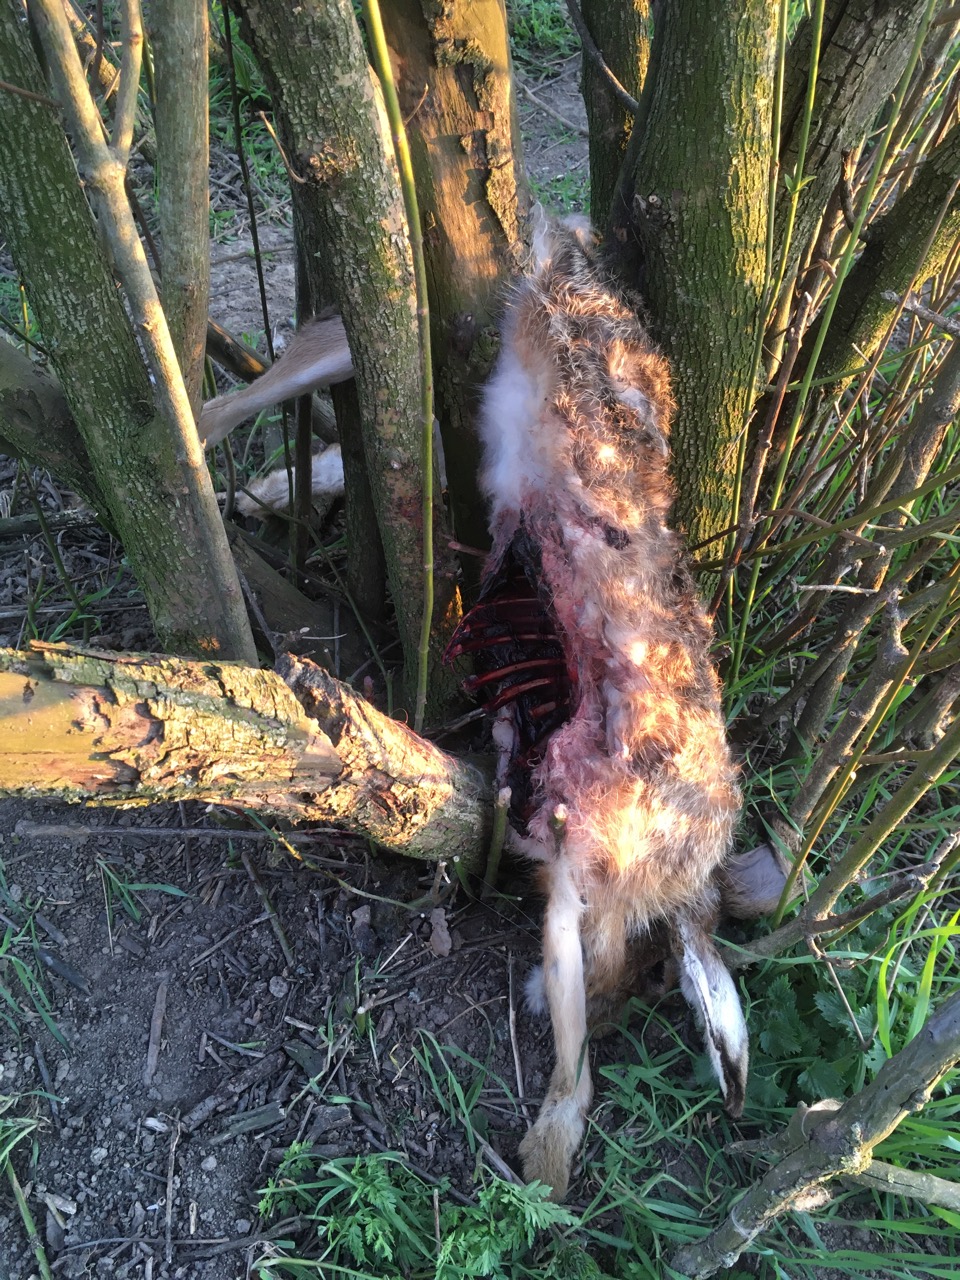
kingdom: Animalia
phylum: Chordata
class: Mammalia
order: Lagomorpha
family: Leporidae
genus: Lepus
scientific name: Lepus europaeus
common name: European hare
